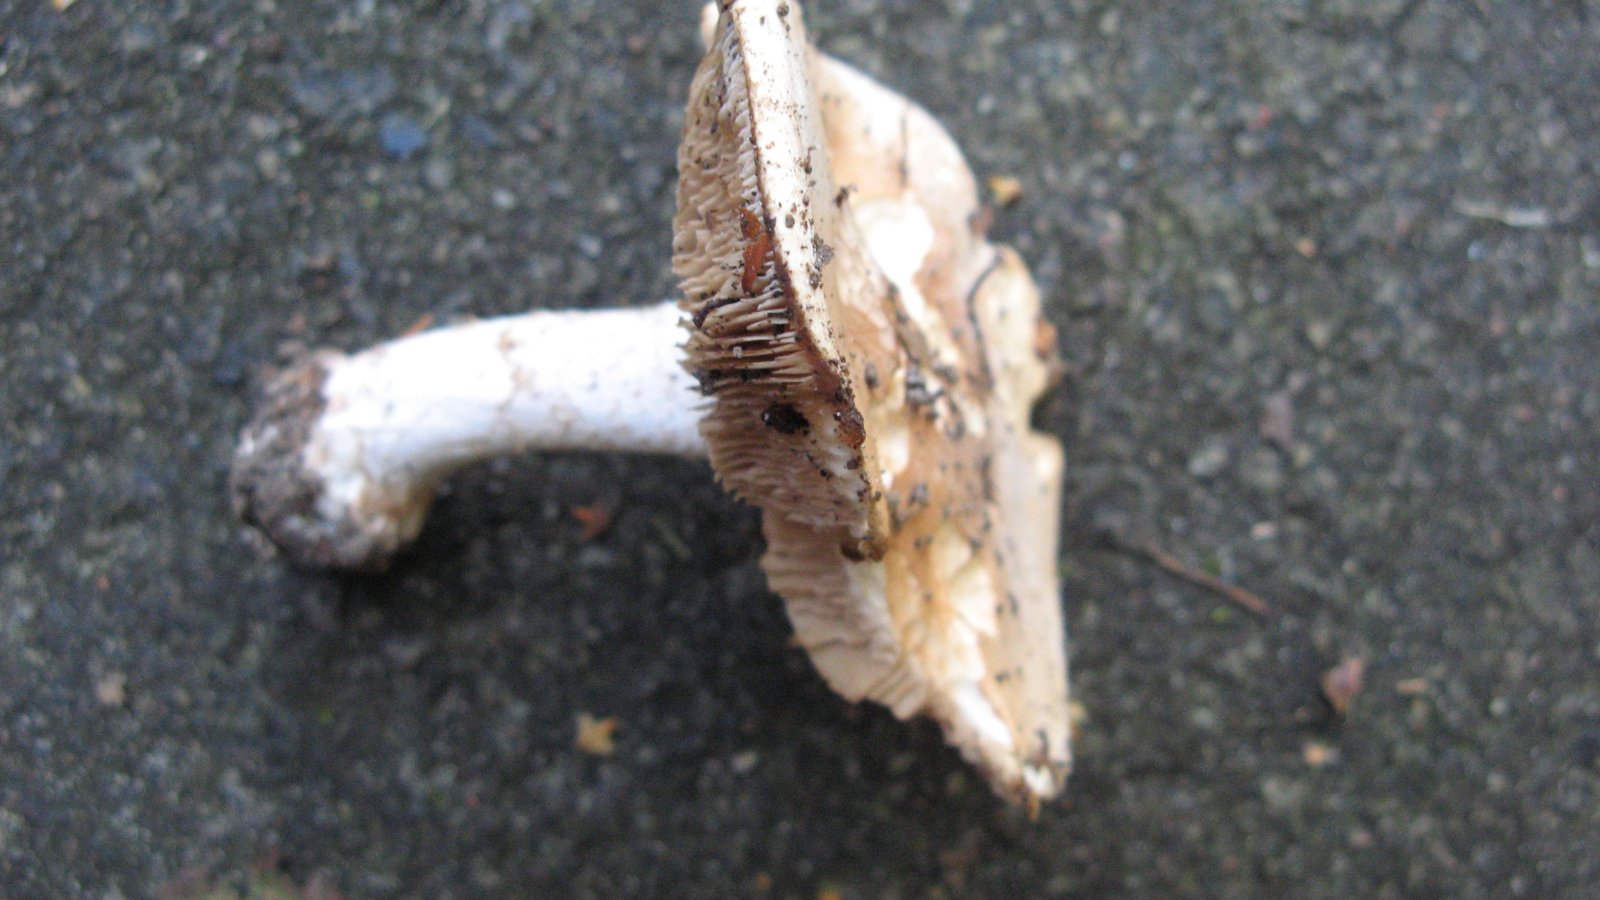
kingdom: Fungi
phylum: Basidiomycota
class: Agaricomycetes
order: Agaricales
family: Hymenogastraceae
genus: Hebeloma
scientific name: Hebeloma sinapizans
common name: ræddike-tåreblad
